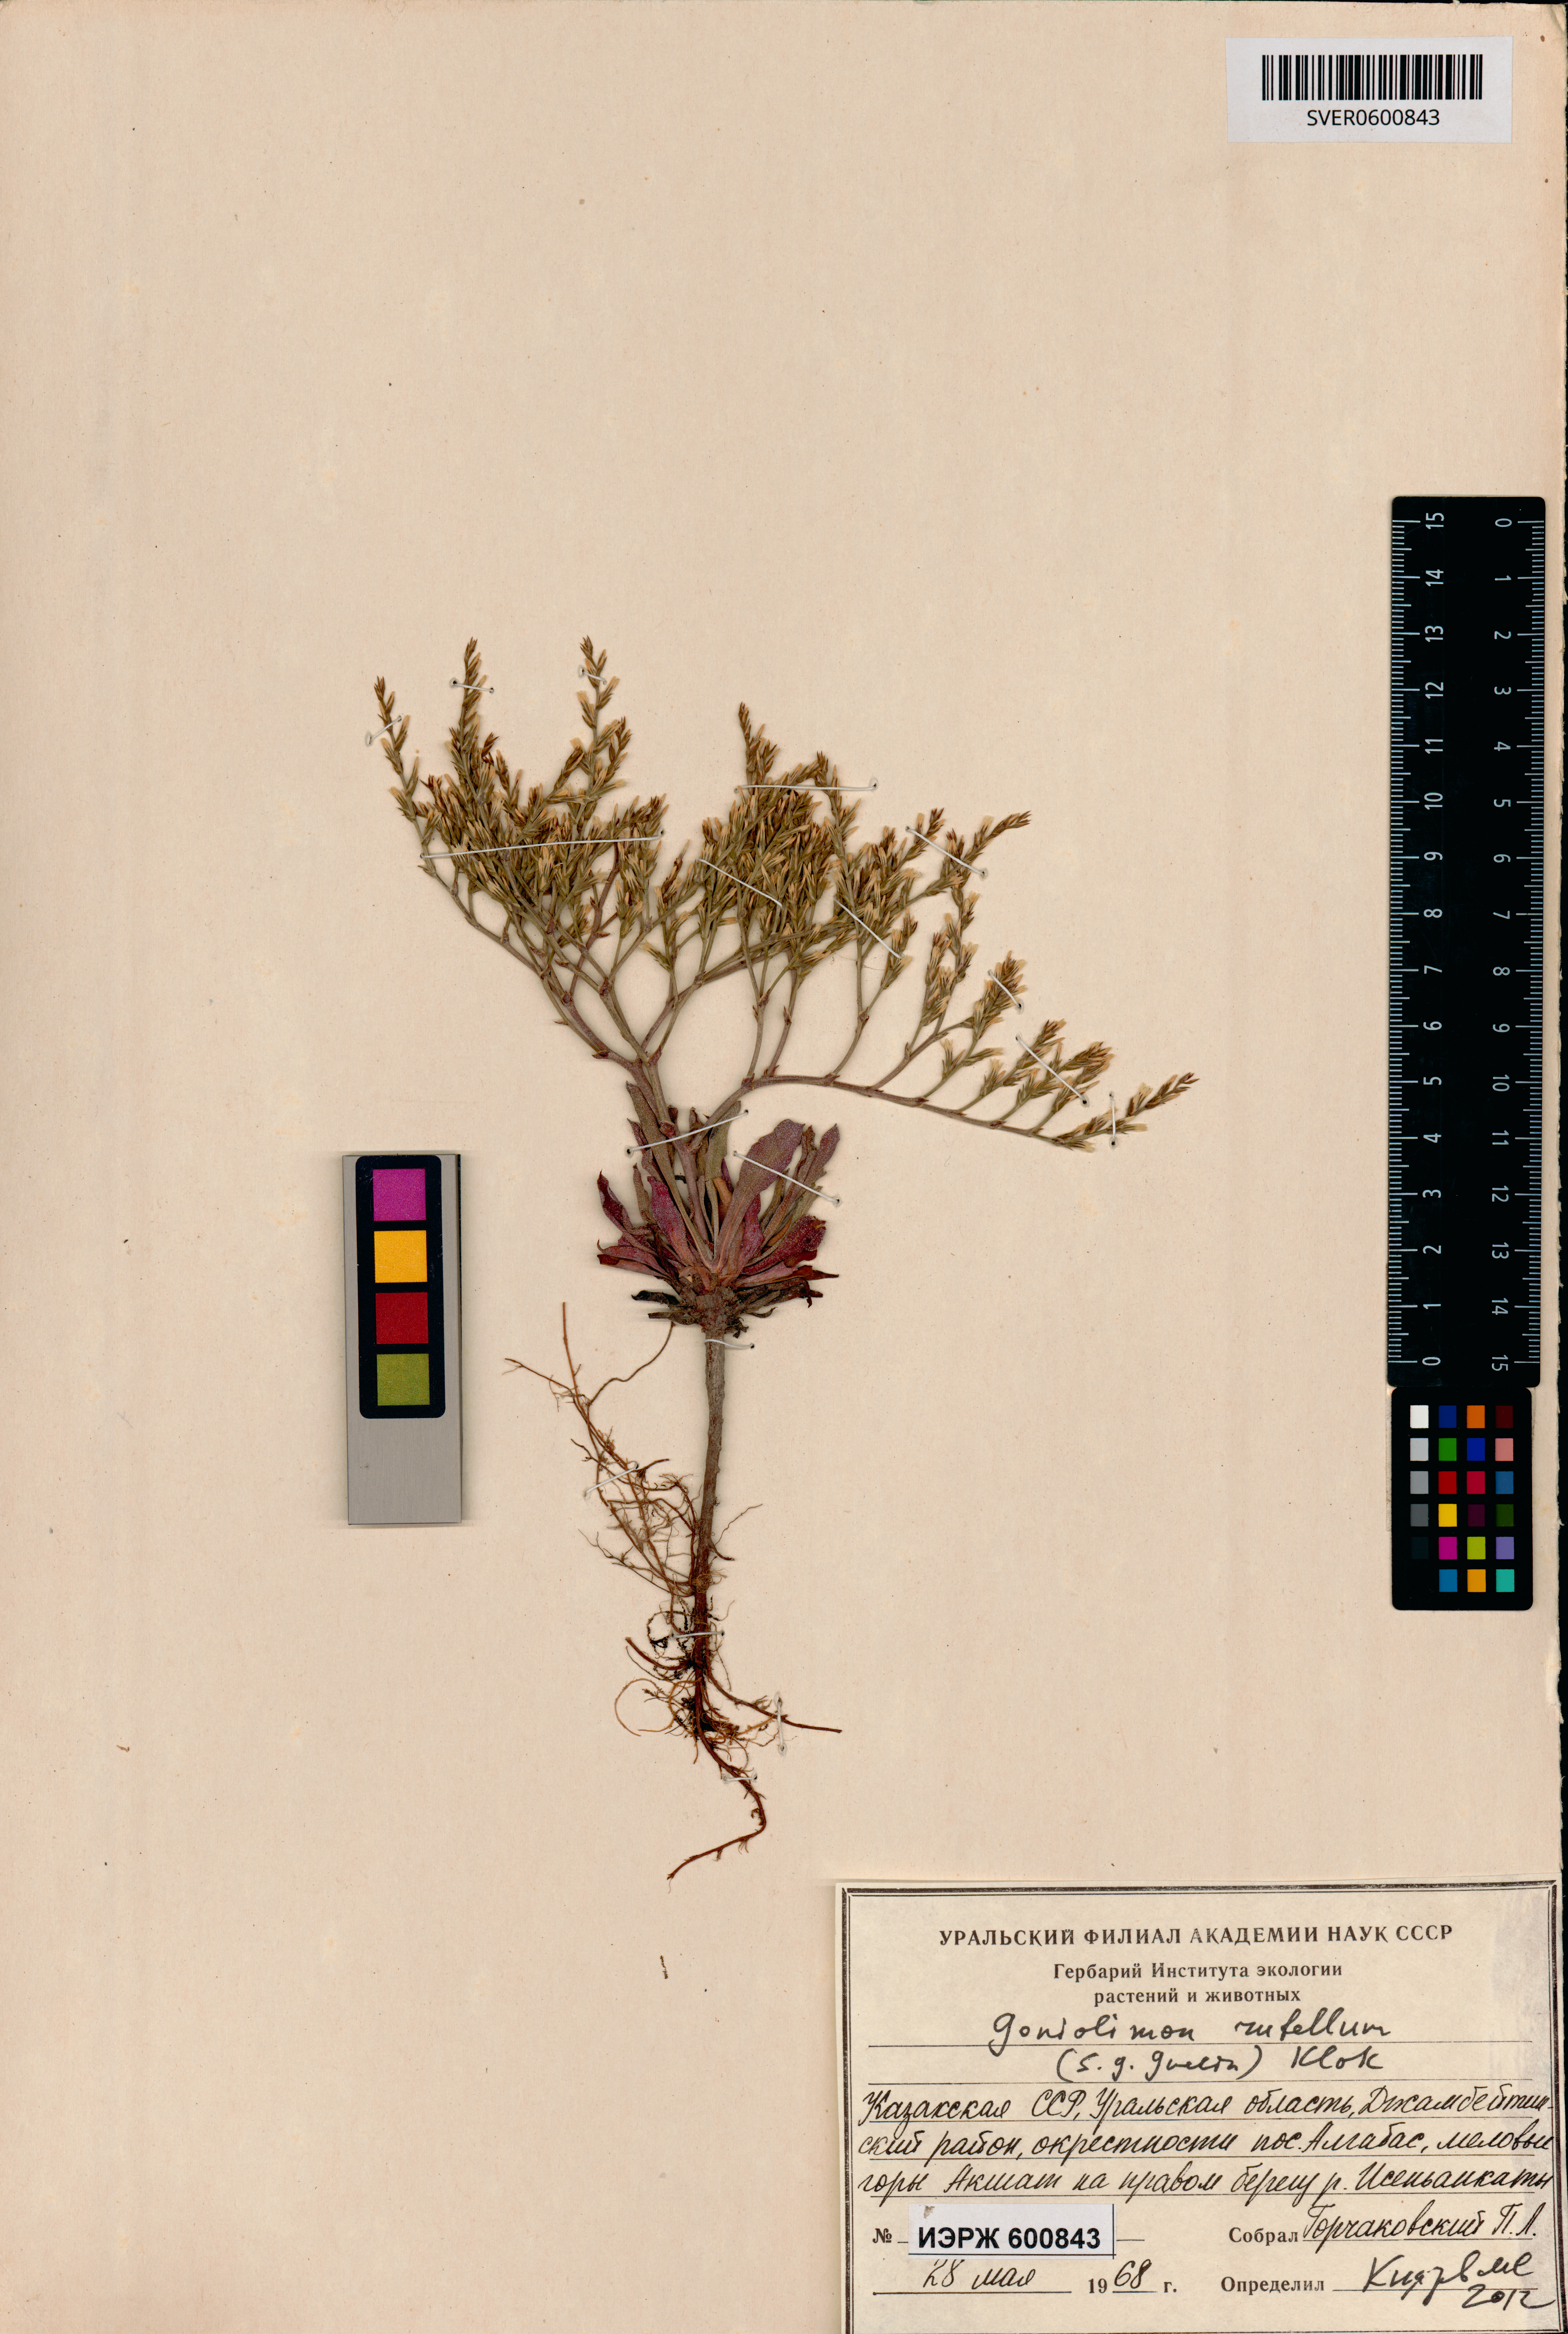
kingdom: Plantae
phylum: Tracheophyta
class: Magnoliopsida
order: Caryophyllales
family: Plumbaginaceae
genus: Goniolimon
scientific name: Goniolimon rubellum
